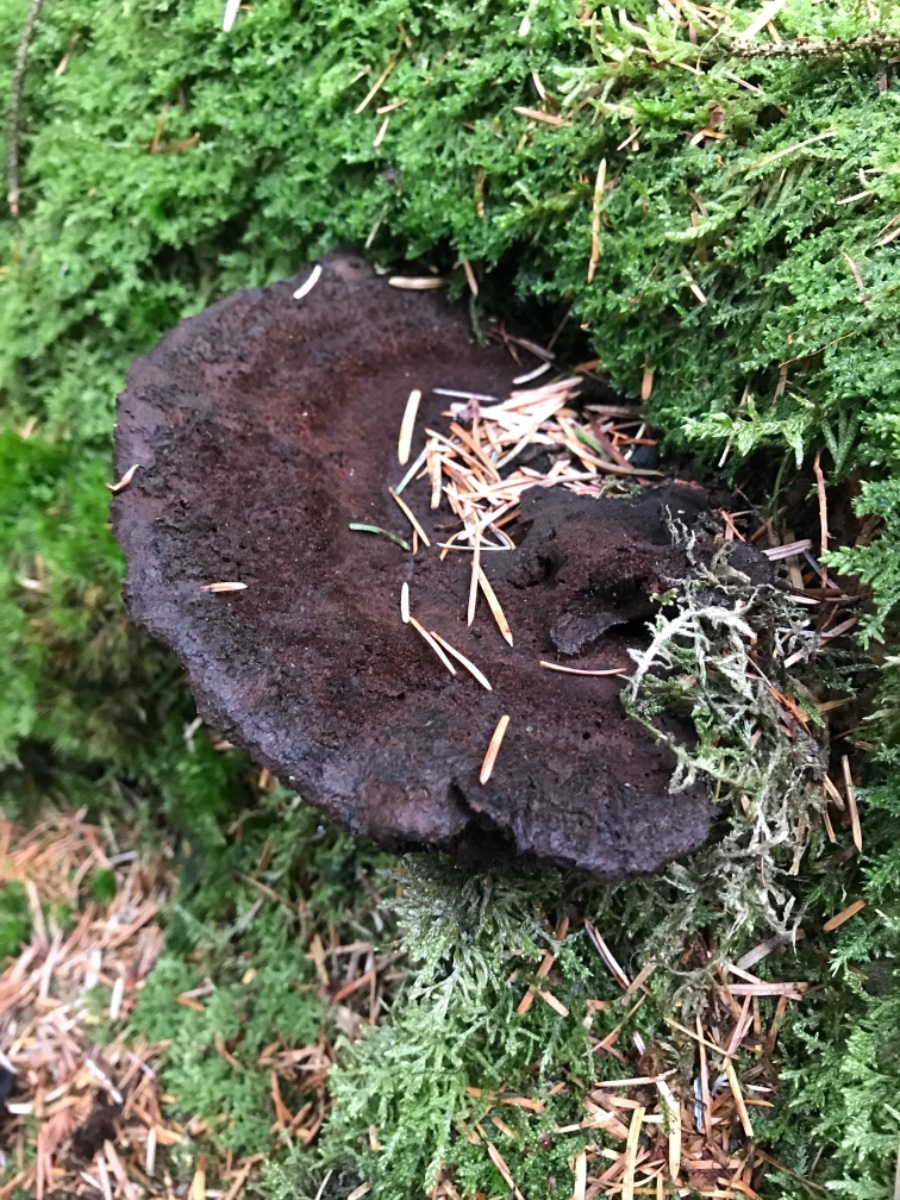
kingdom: Fungi
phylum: Basidiomycota
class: Agaricomycetes
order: Polyporales
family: Laetiporaceae
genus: Phaeolus
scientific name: Phaeolus schweinitzii
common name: brunporesvamp
